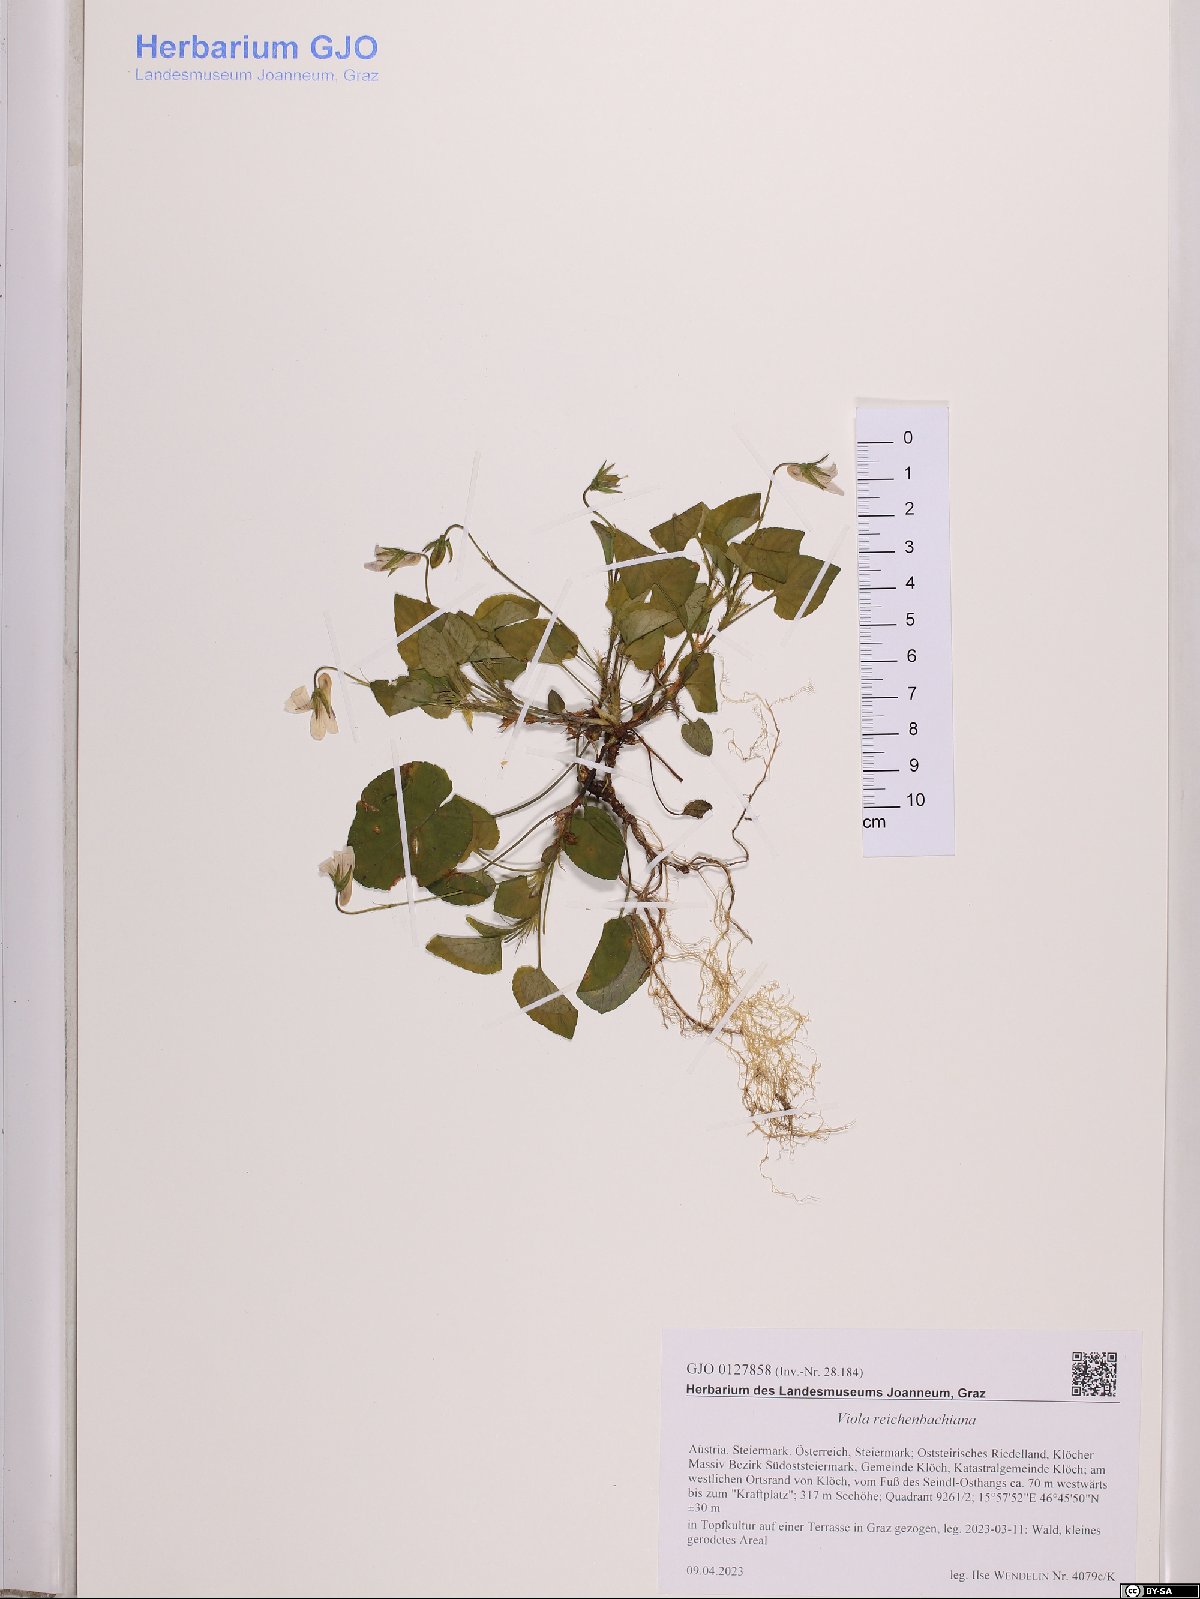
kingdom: Plantae
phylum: Tracheophyta
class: Magnoliopsida
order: Malpighiales
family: Violaceae
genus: Viola
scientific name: Viola reichenbachiana
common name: Early dog-violet
